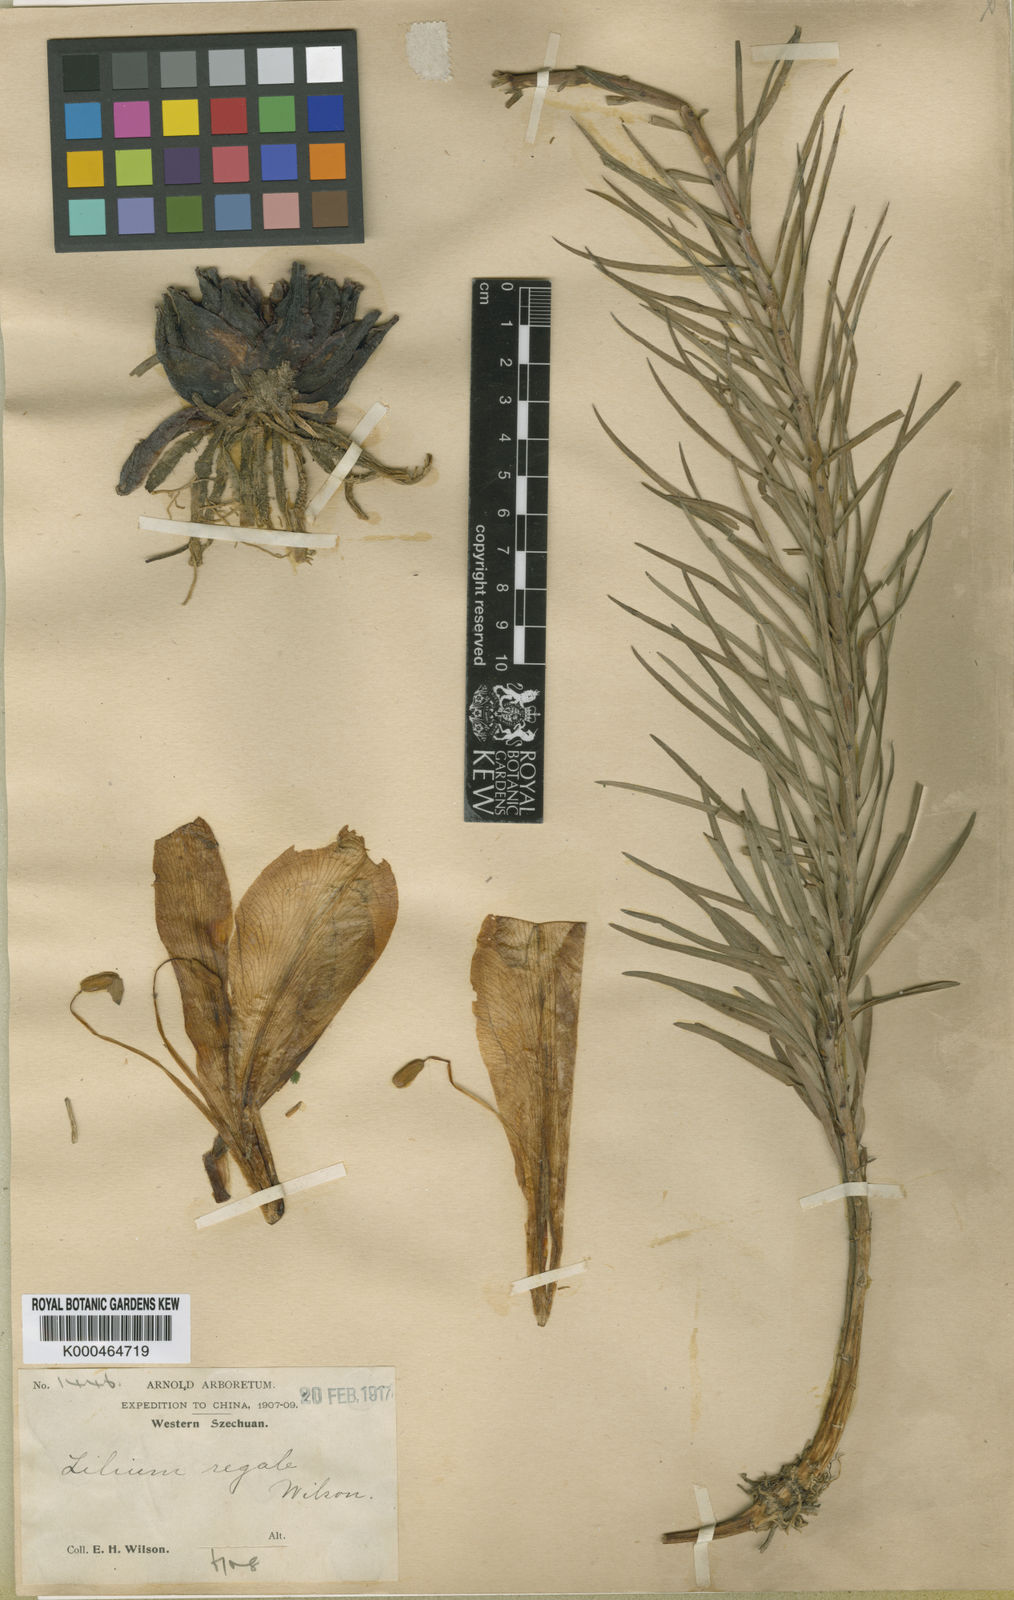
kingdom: Plantae
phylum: Tracheophyta
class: Liliopsida
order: Liliales
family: Liliaceae
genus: Lilium
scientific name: Lilium regale
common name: Regal lily
